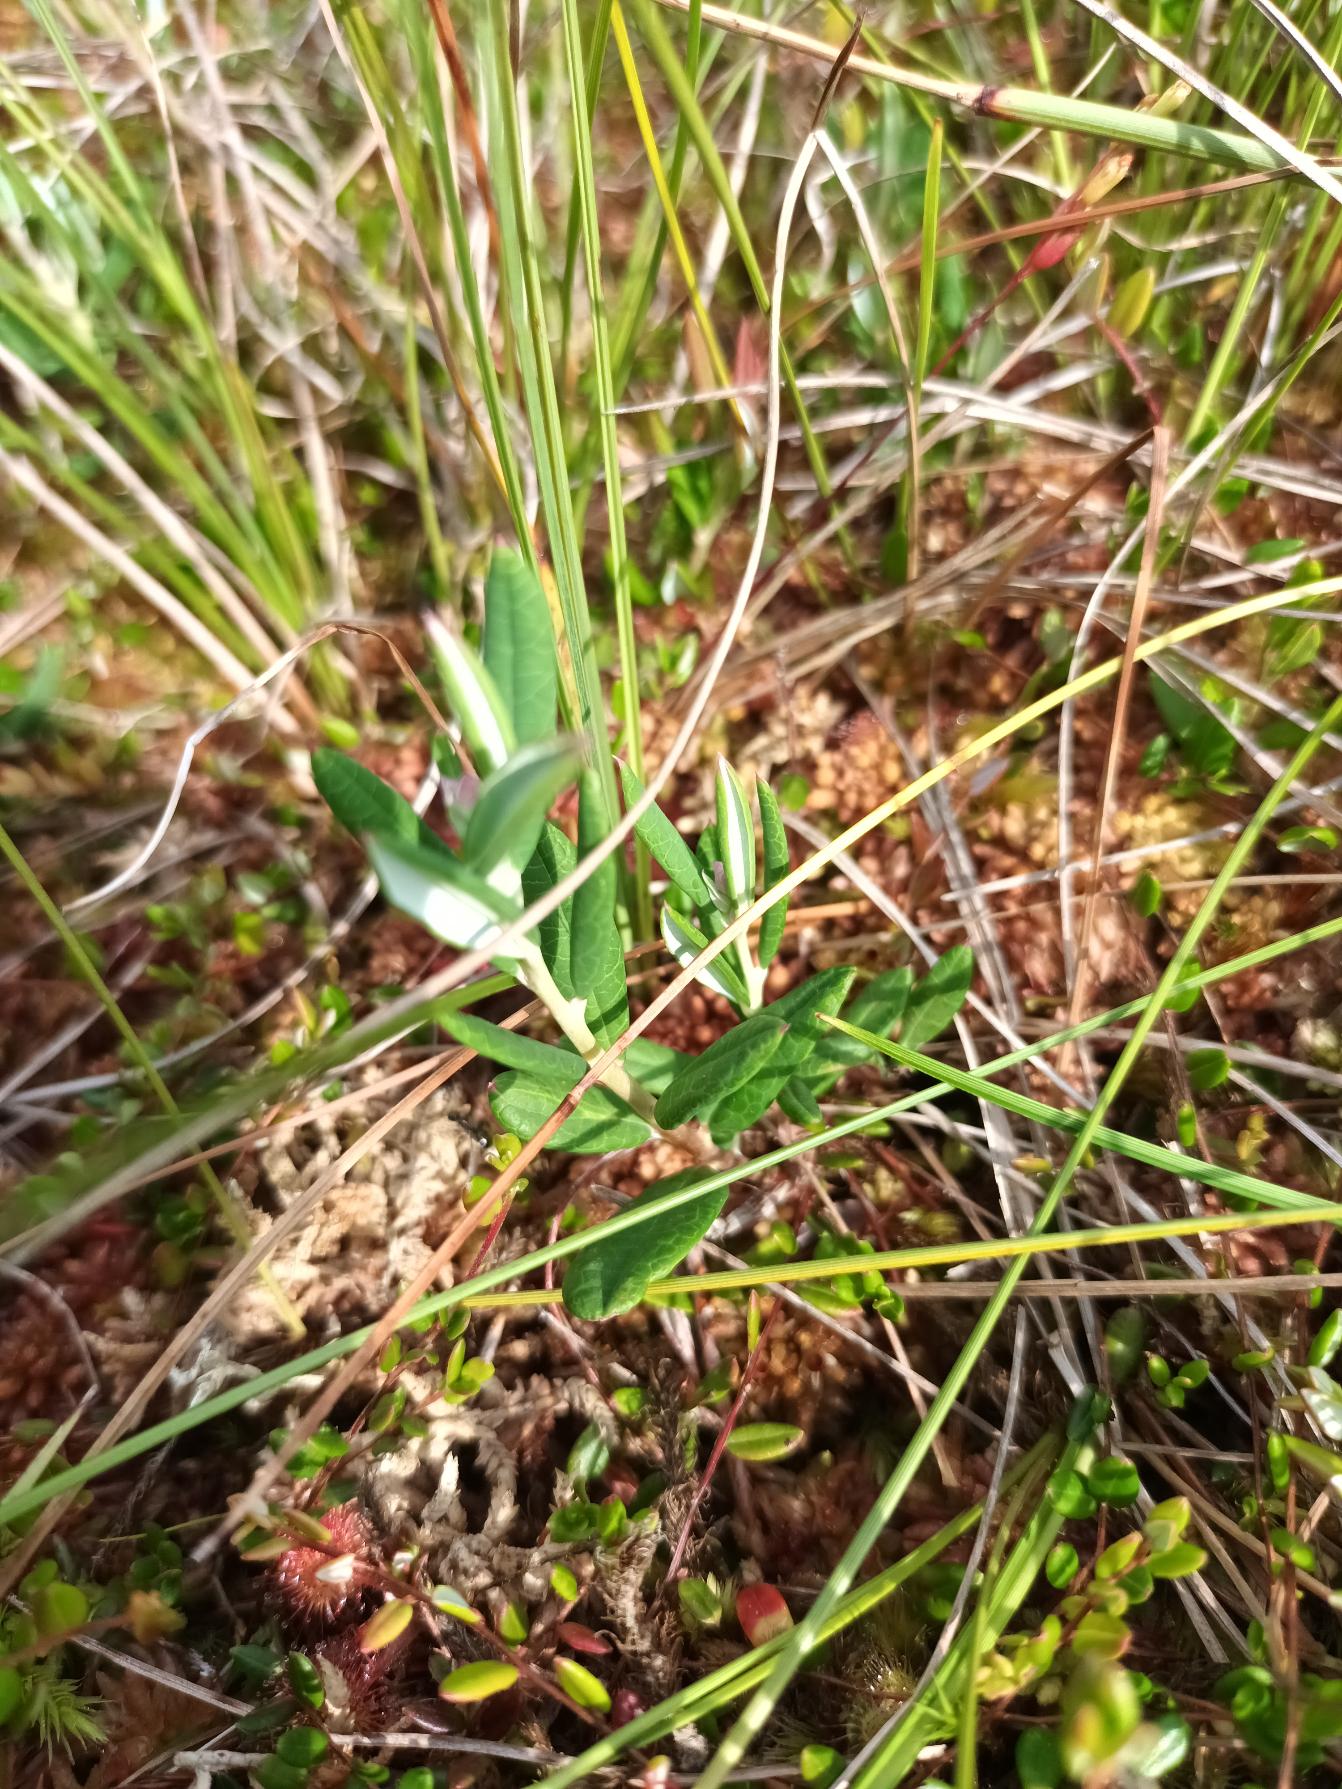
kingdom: Plantae
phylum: Tracheophyta
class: Magnoliopsida
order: Ericales
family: Ericaceae
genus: Andromeda
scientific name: Andromeda polifolia
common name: Rosmarinlyng
